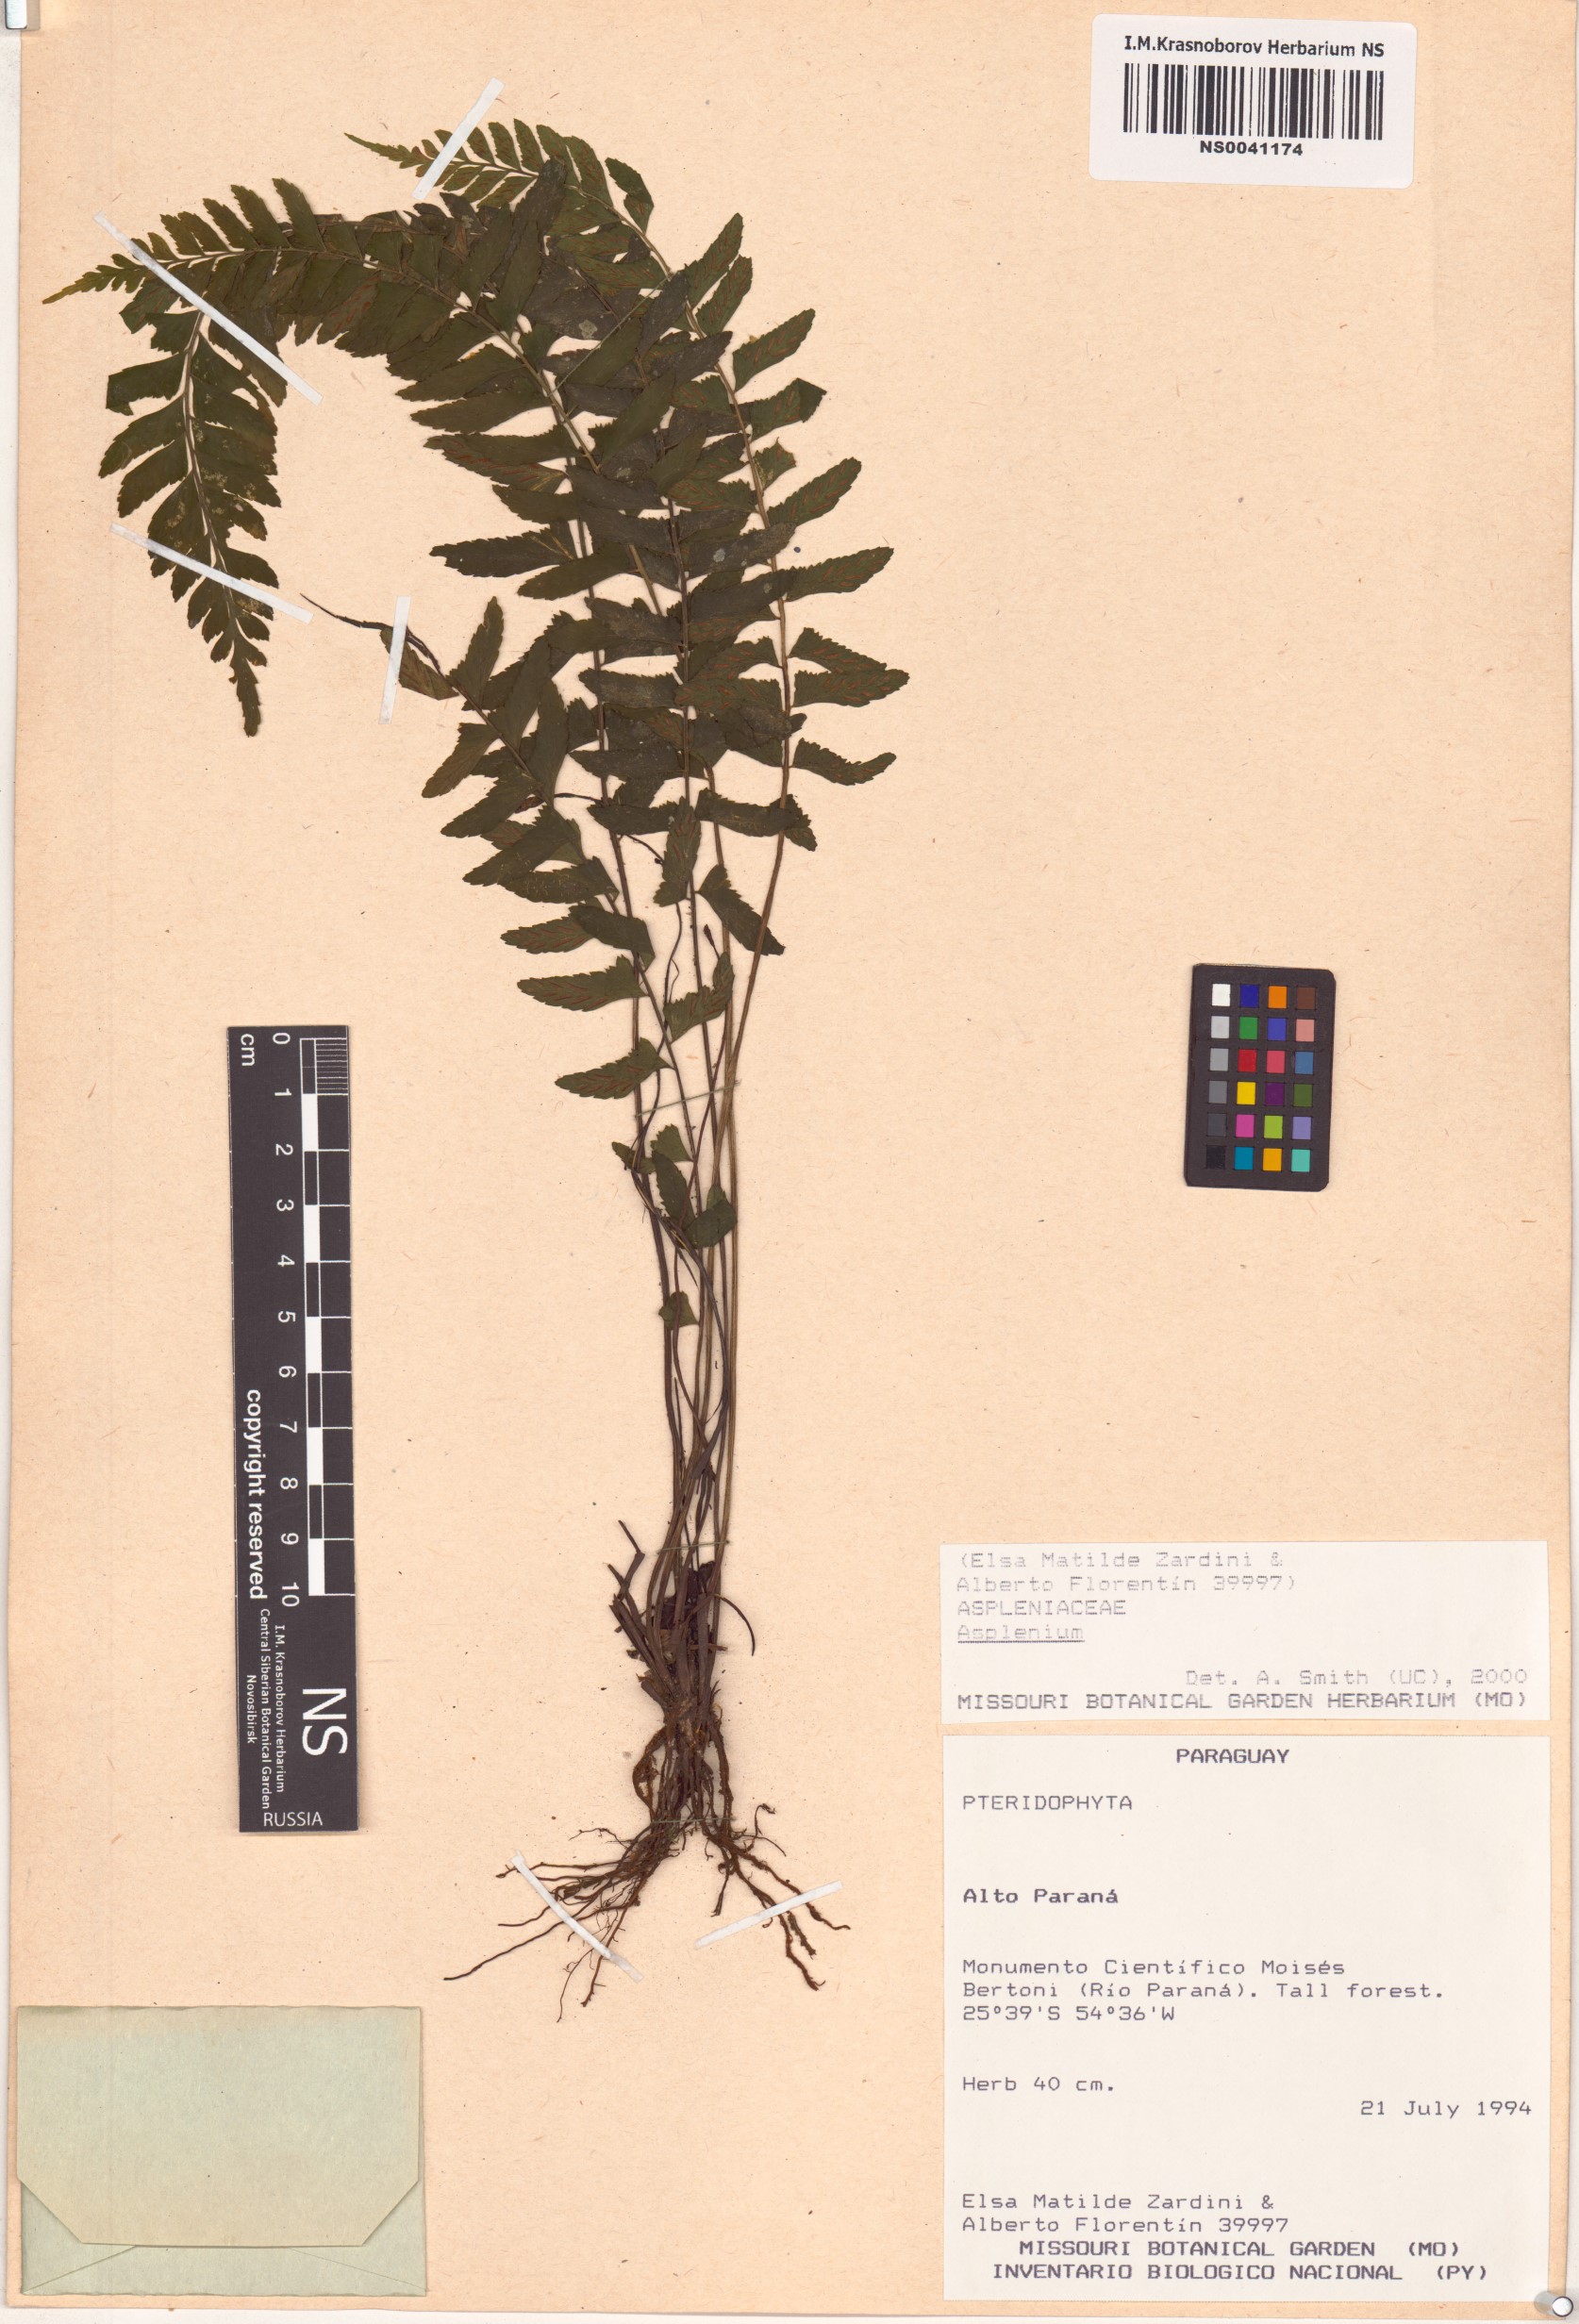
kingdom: Plantae
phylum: Tracheophyta
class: Polypodiopsida
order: Polypodiales
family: Aspleniaceae
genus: Asplenium
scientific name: Asplenium
